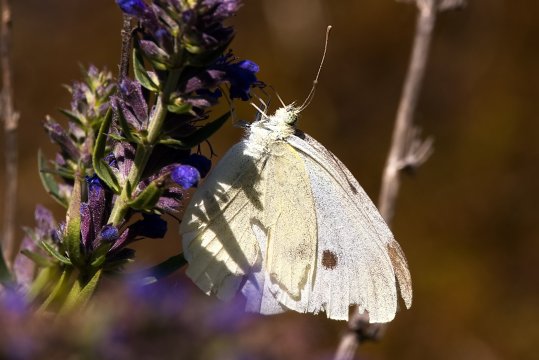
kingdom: Animalia
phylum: Arthropoda
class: Insecta
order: Lepidoptera
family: Pieridae
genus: Pieris
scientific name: Pieris rapae
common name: Cabbage White
